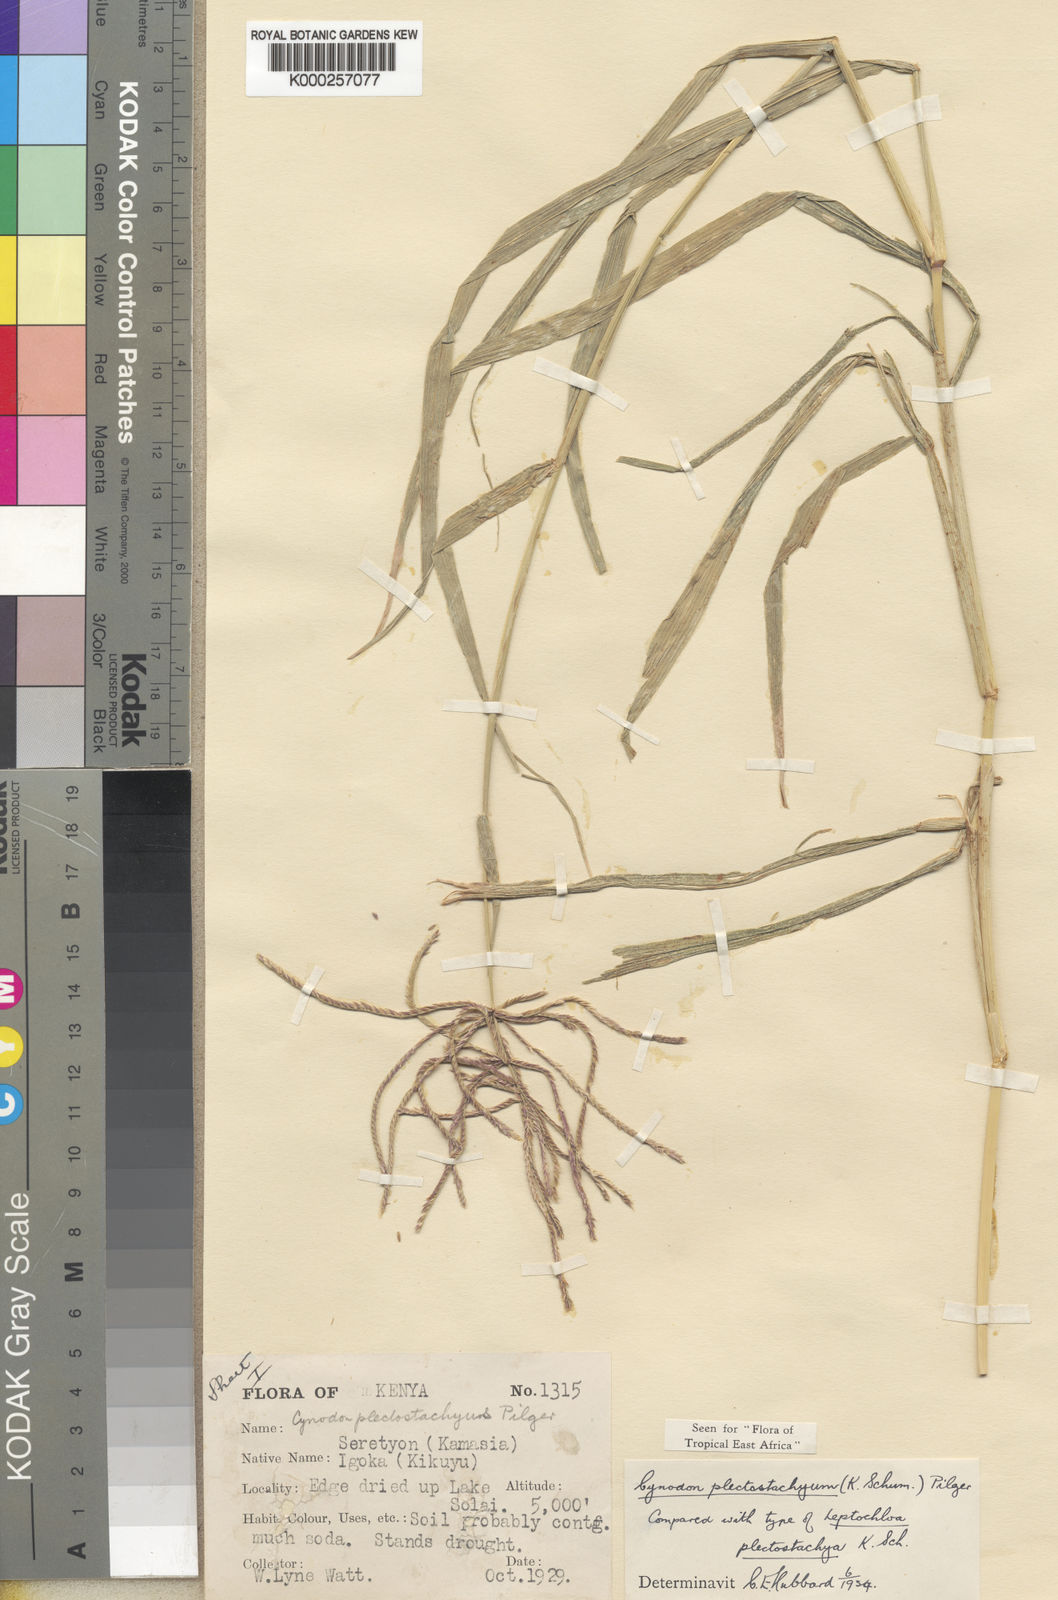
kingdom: Plantae
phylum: Tracheophyta
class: Liliopsida
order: Poales
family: Poaceae
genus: Cynodon
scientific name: Cynodon plectostachyus
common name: Stargrass
